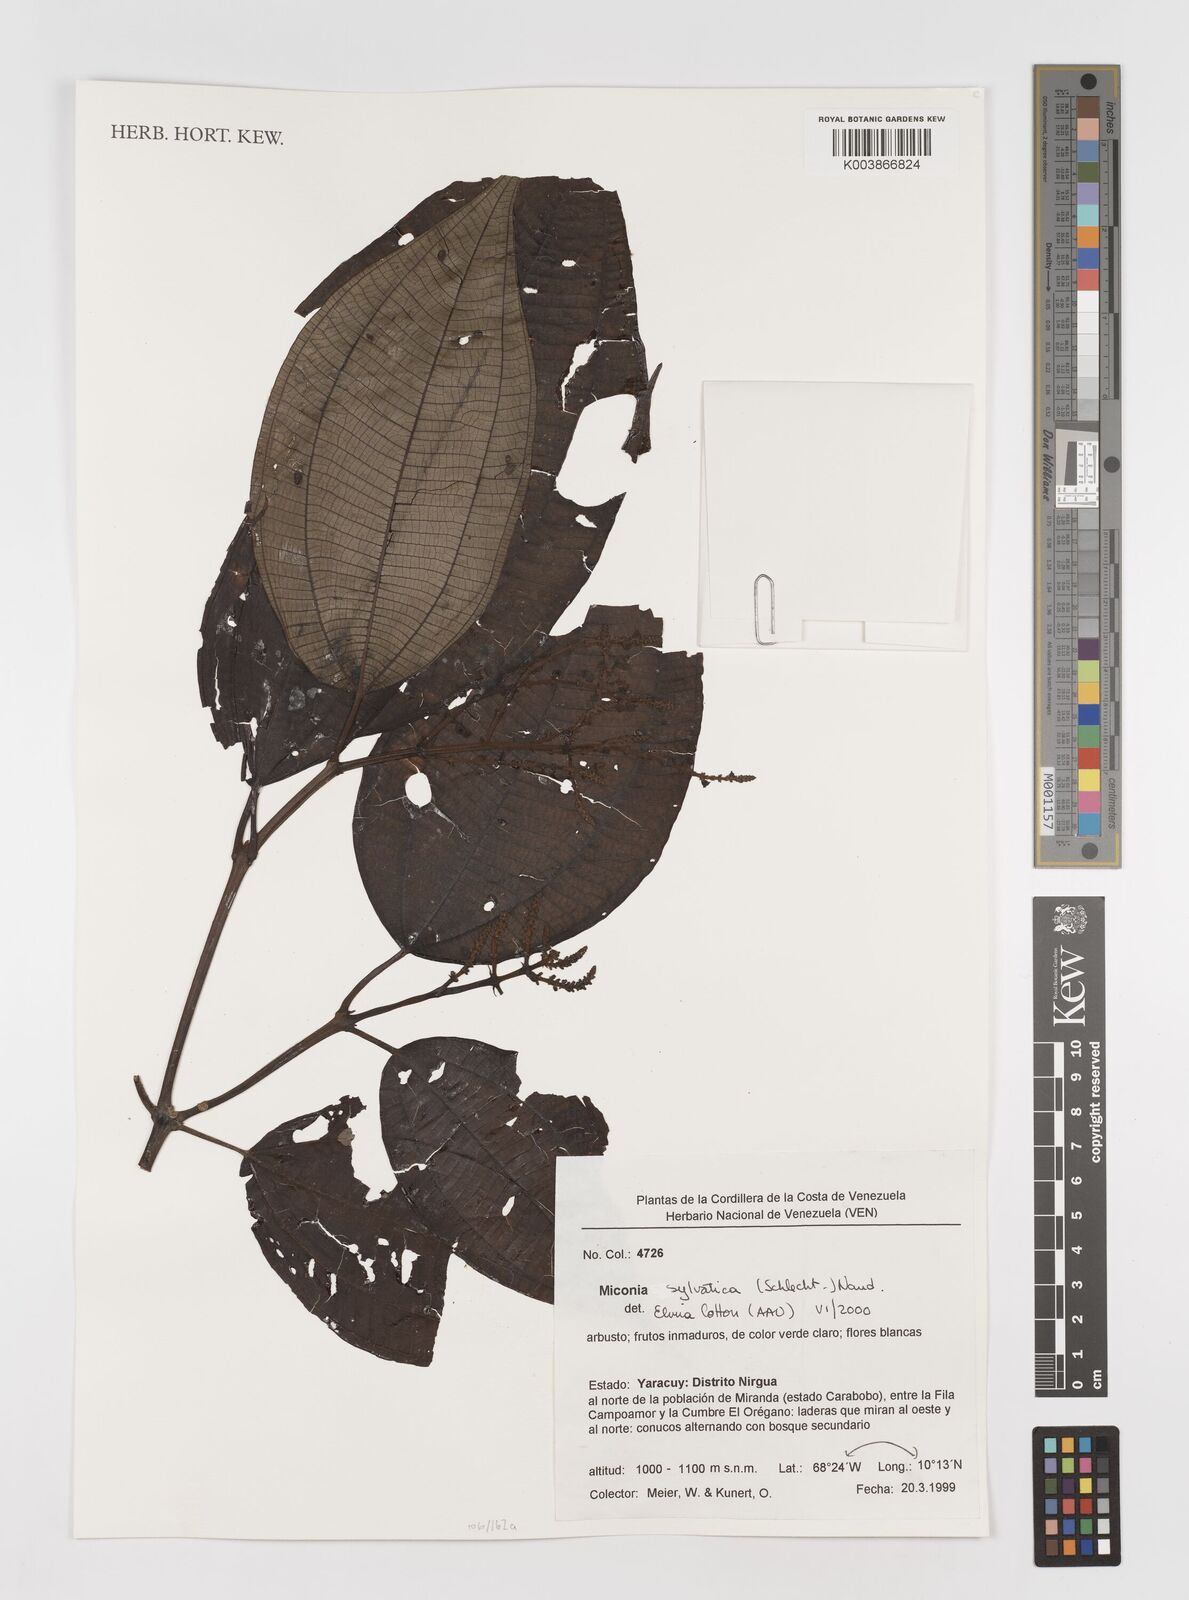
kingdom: Plantae
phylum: Tracheophyta
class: Magnoliopsida
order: Myrtales
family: Melastomataceae
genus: Miconia
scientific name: Miconia sylvatica
